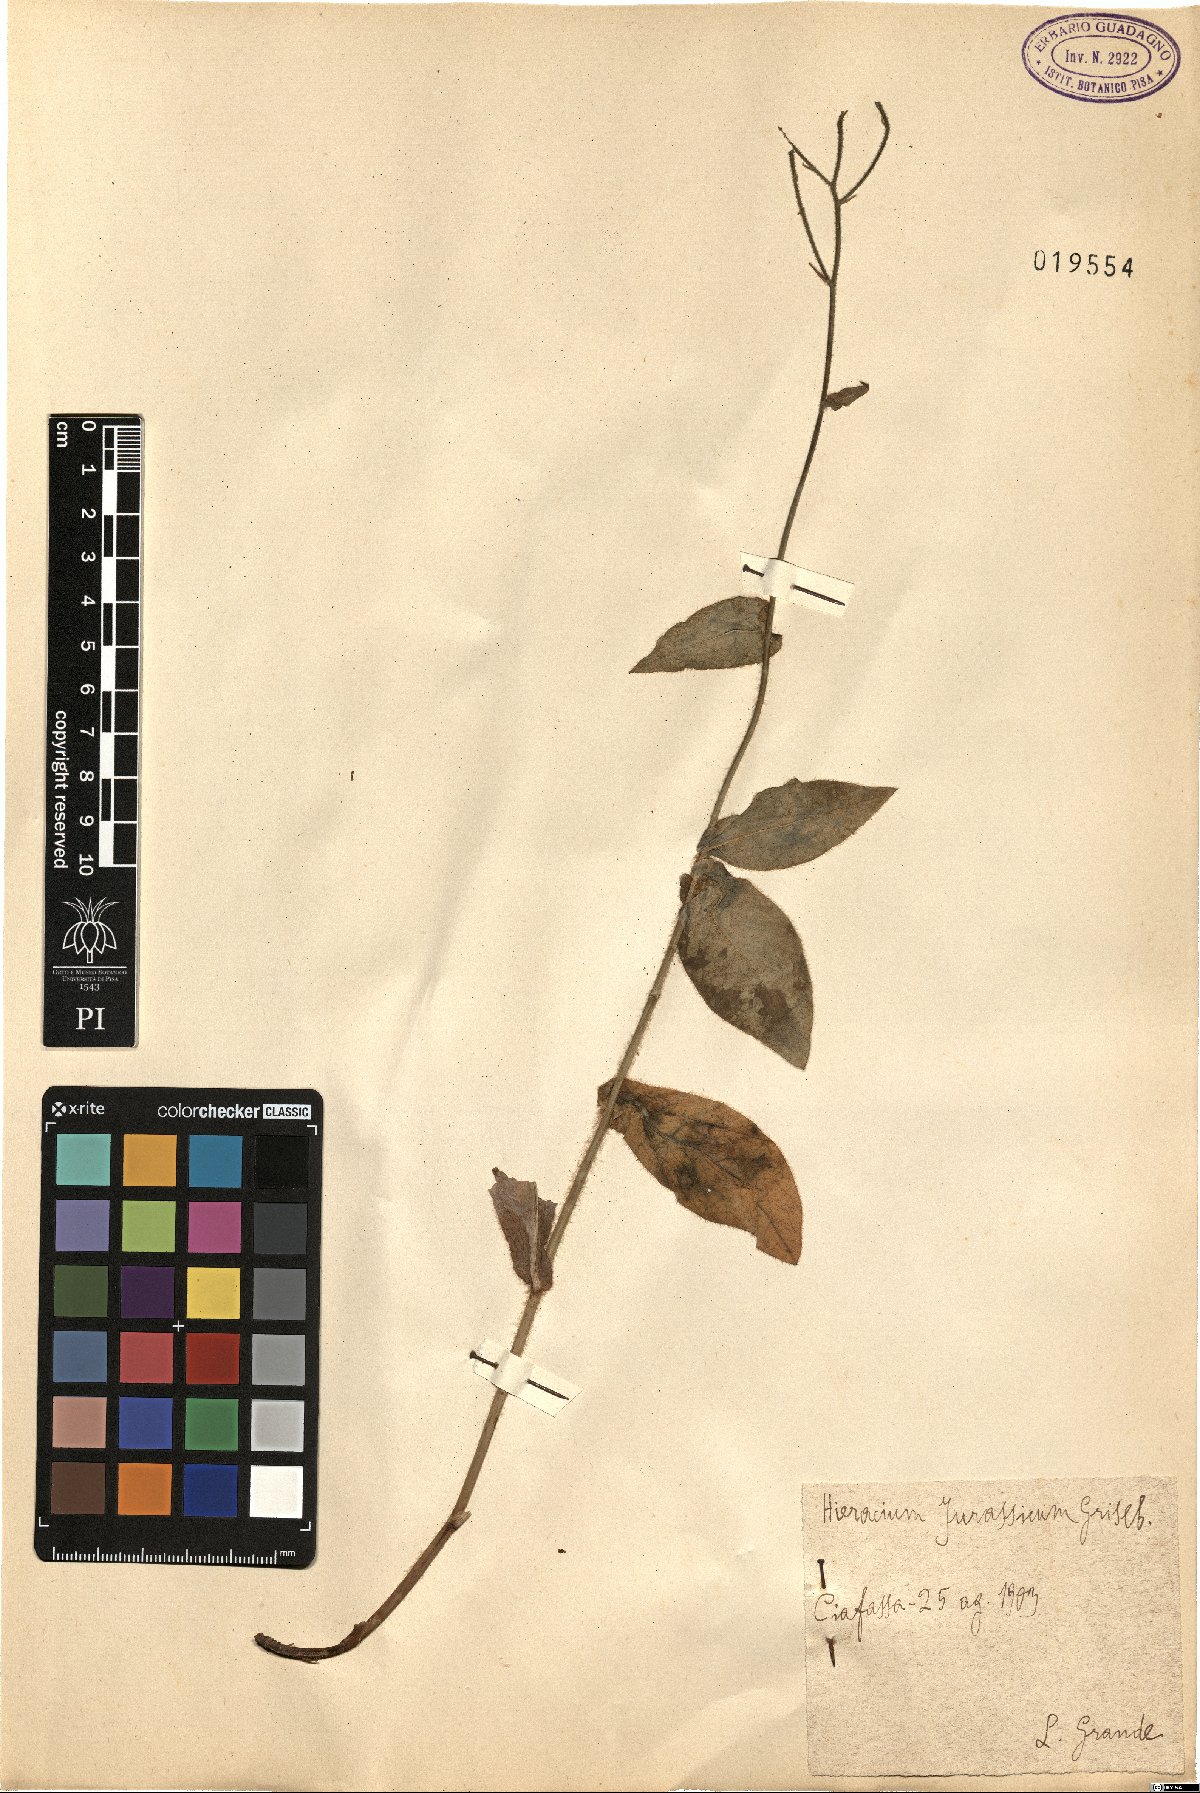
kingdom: Plantae
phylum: Tracheophyta
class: Magnoliopsida
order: Asterales
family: Asteraceae
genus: Hieracium
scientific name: Hieracium jurassicum
